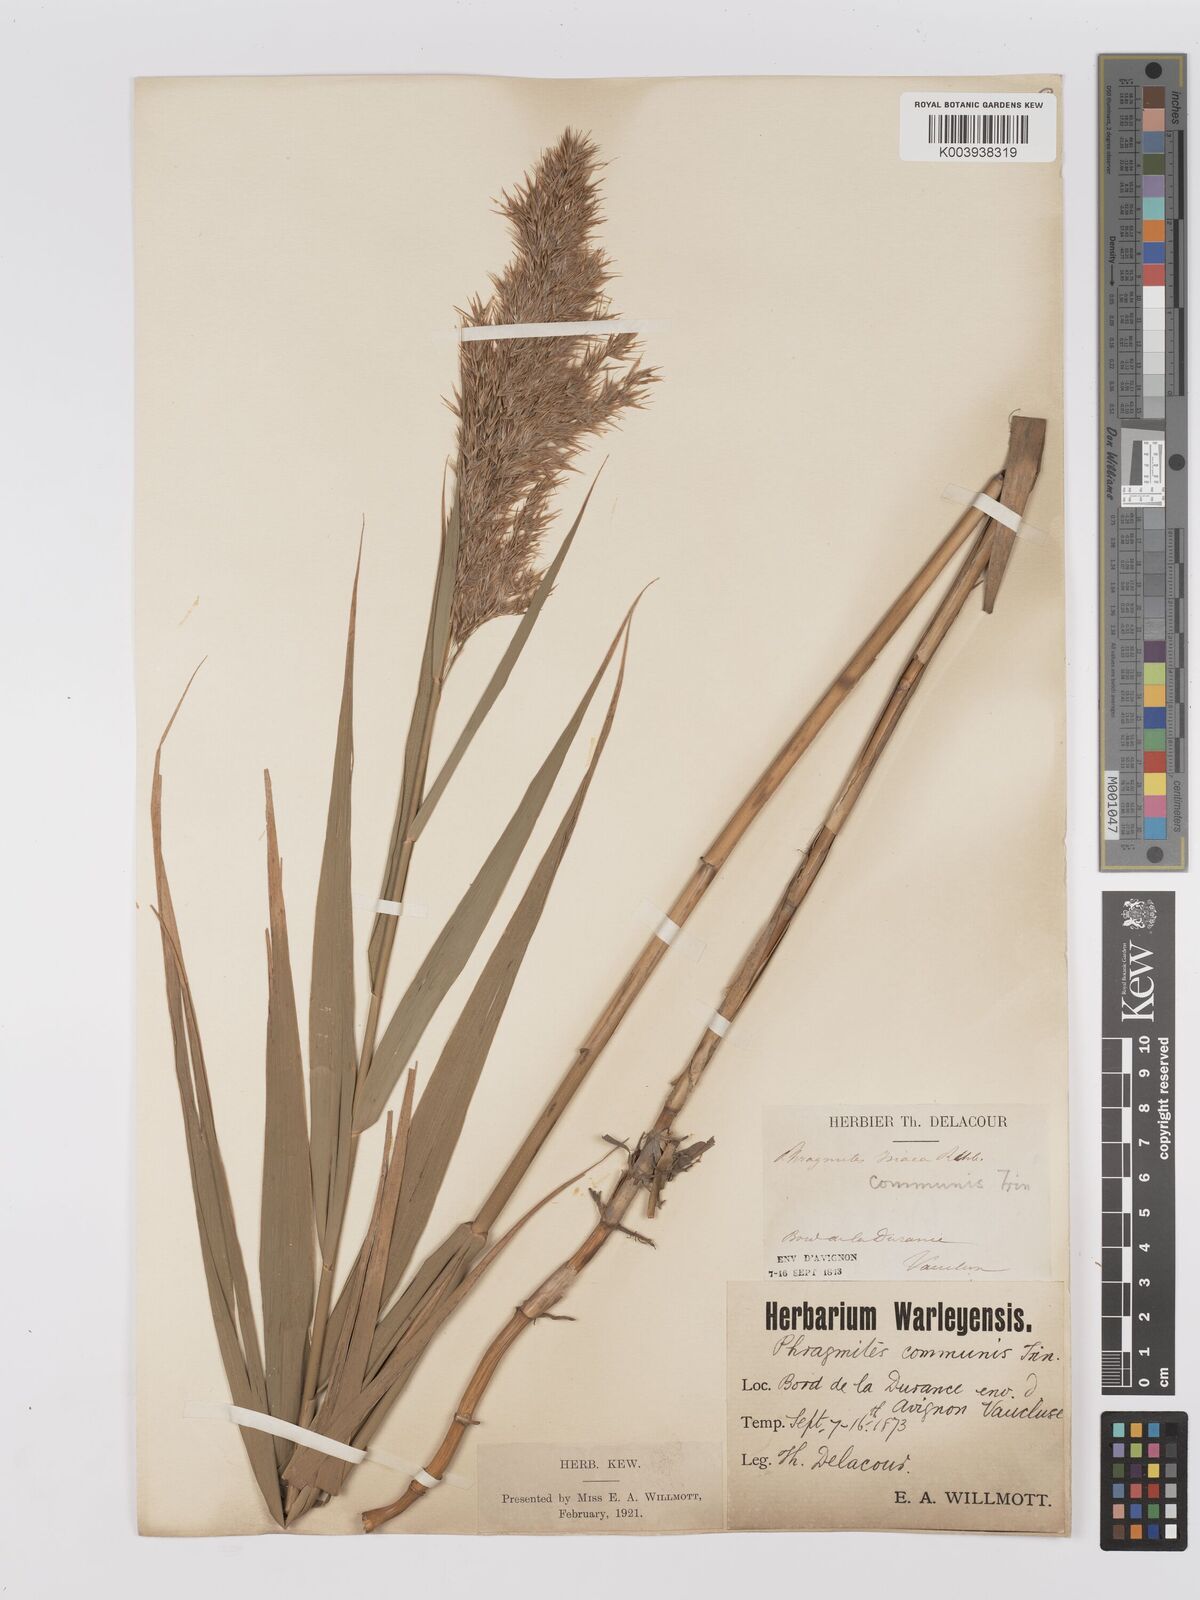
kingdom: Plantae
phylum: Tracheophyta
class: Liliopsida
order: Poales
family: Poaceae
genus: Phragmites
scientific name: Phragmites australis
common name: Common reed
